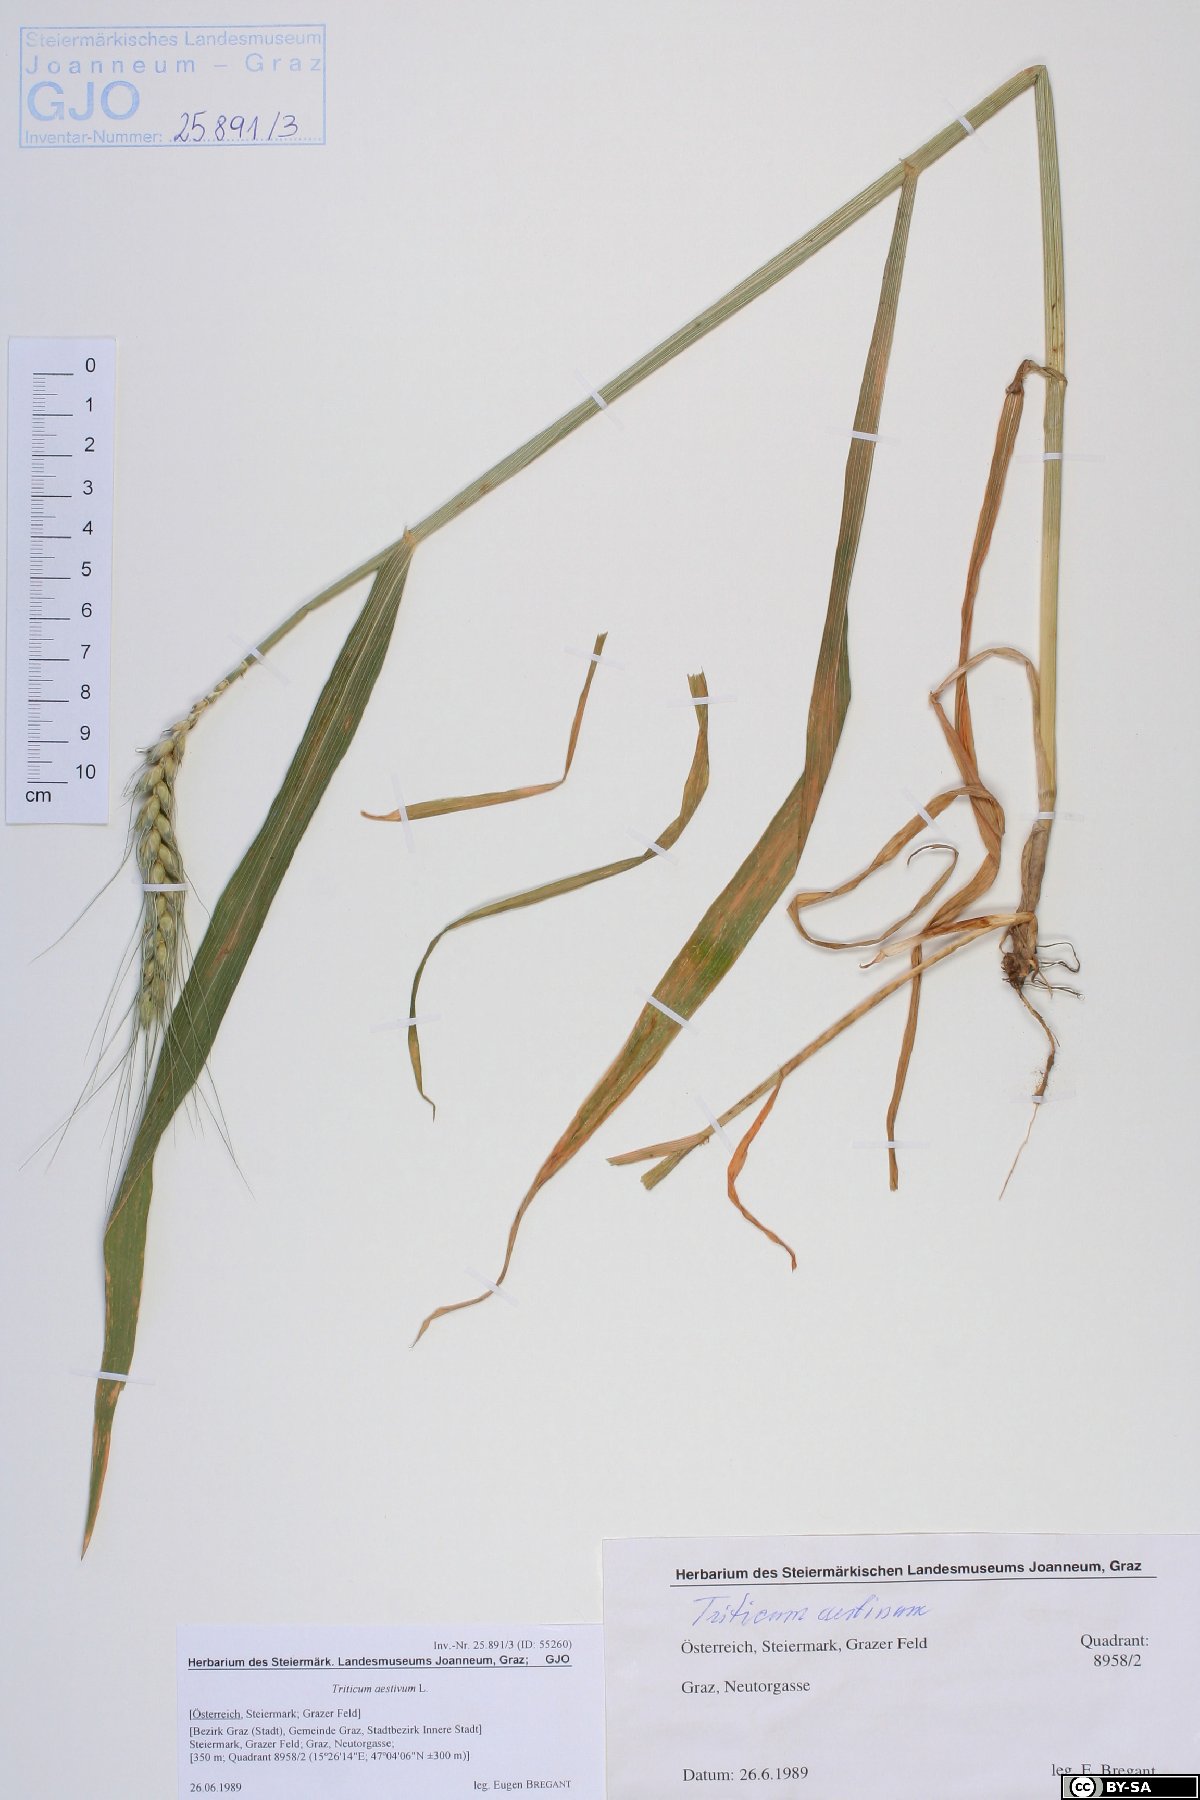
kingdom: Plantae
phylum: Tracheophyta
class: Liliopsida
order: Poales
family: Poaceae
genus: Triticum
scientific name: Triticum aestivum
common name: Common wheat
